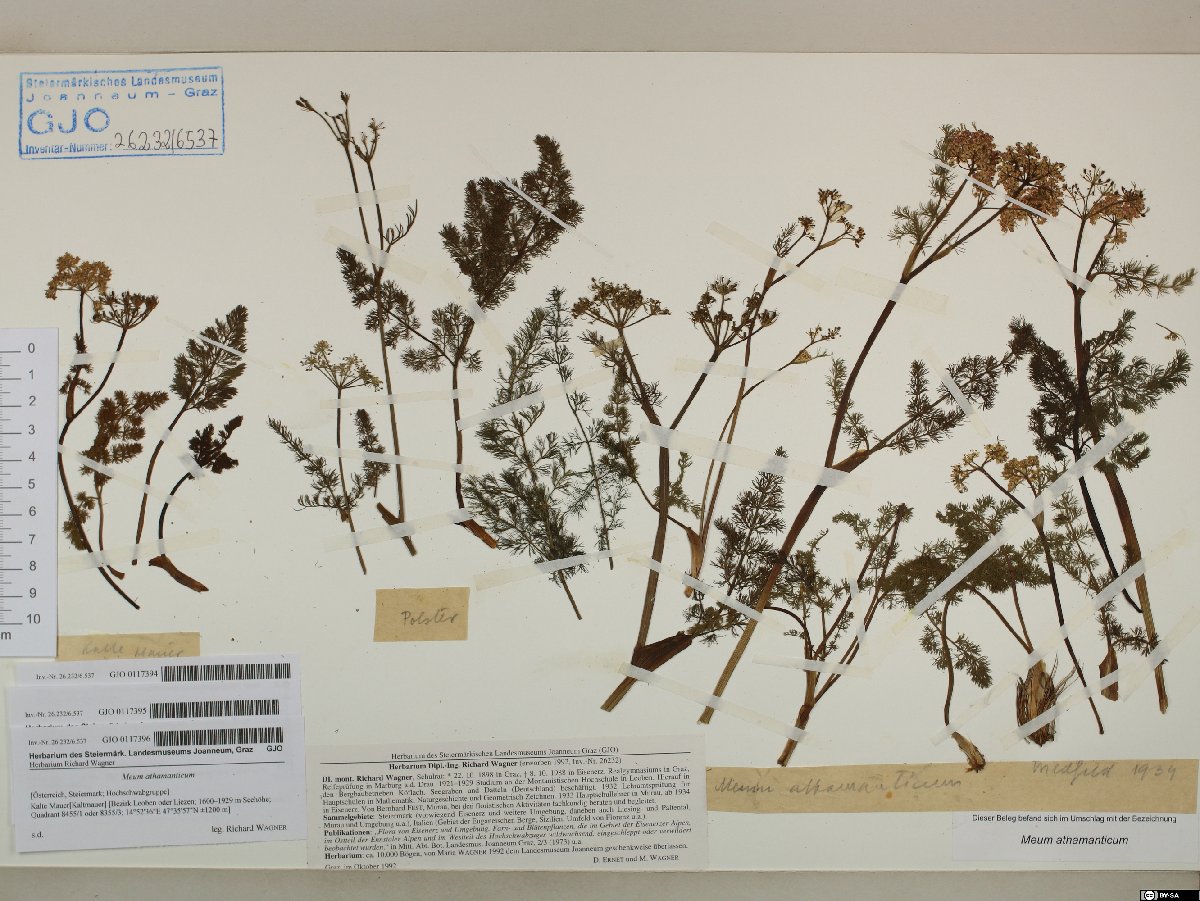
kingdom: Plantae
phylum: Tracheophyta
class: Magnoliopsida
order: Apiales
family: Apiaceae
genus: Meum
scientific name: Meum athamanticum
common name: Spignel
